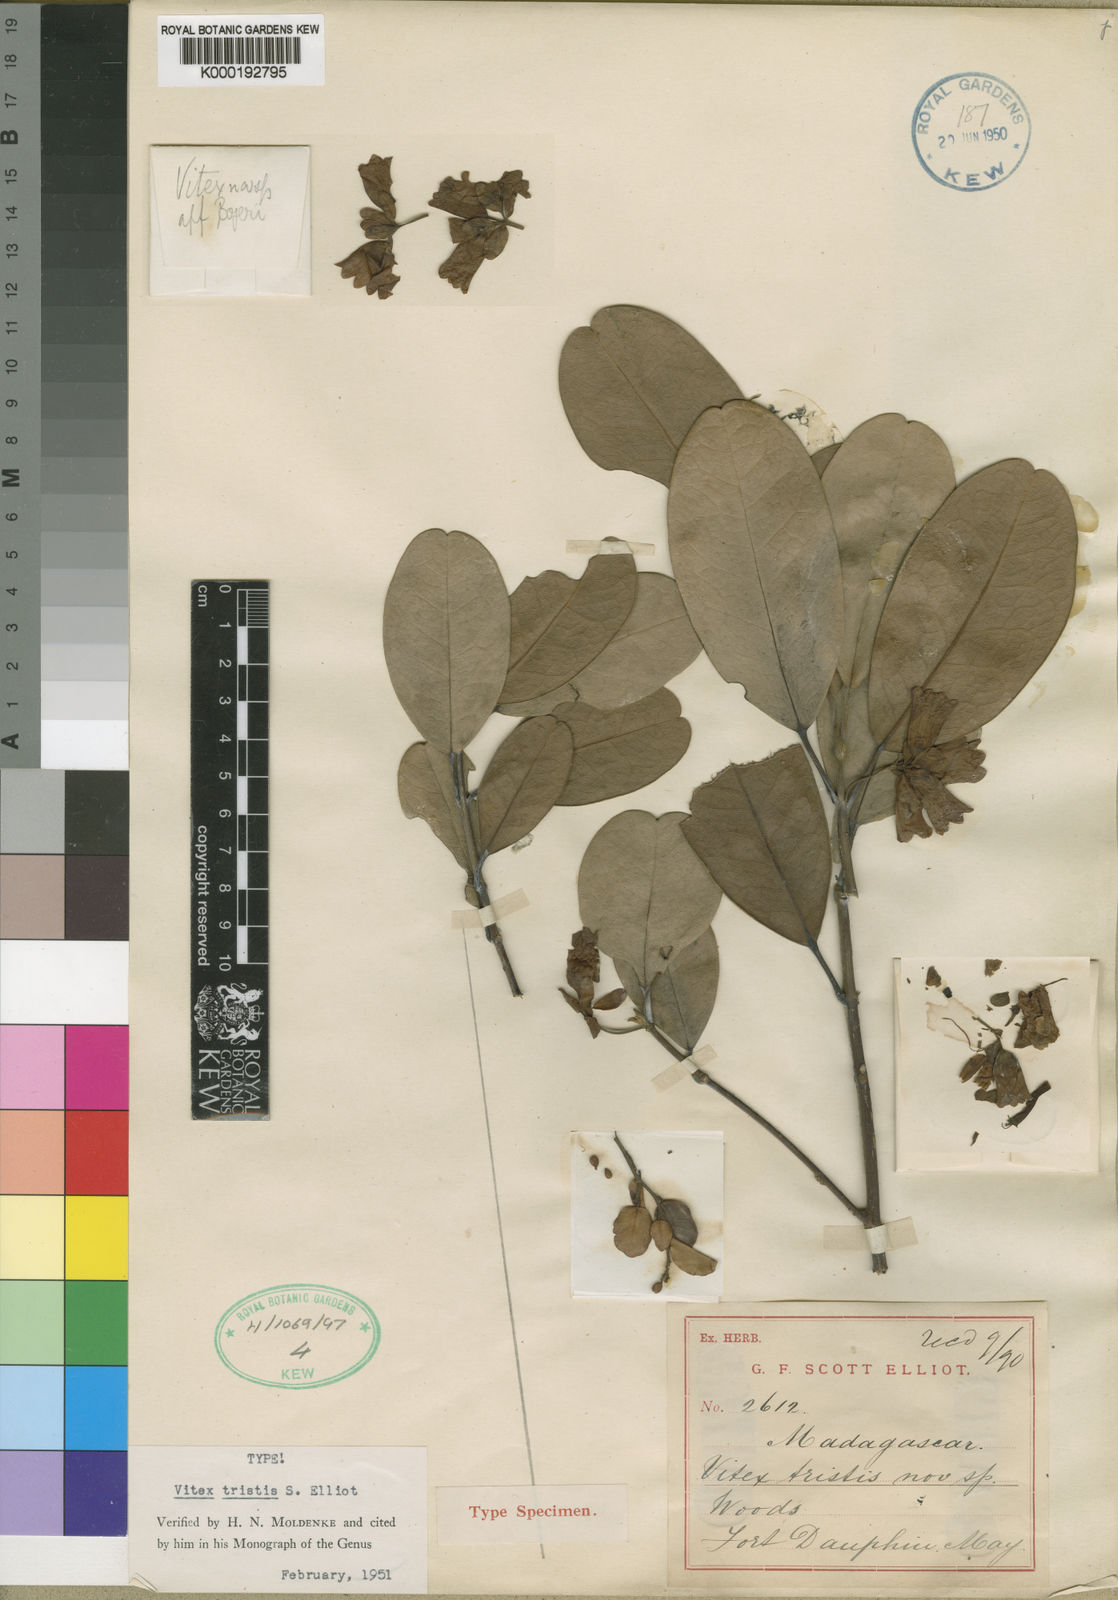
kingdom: Plantae
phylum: Tracheophyta
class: Magnoliopsida
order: Lamiales
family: Lamiaceae
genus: Vitex
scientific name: Vitex tristis
